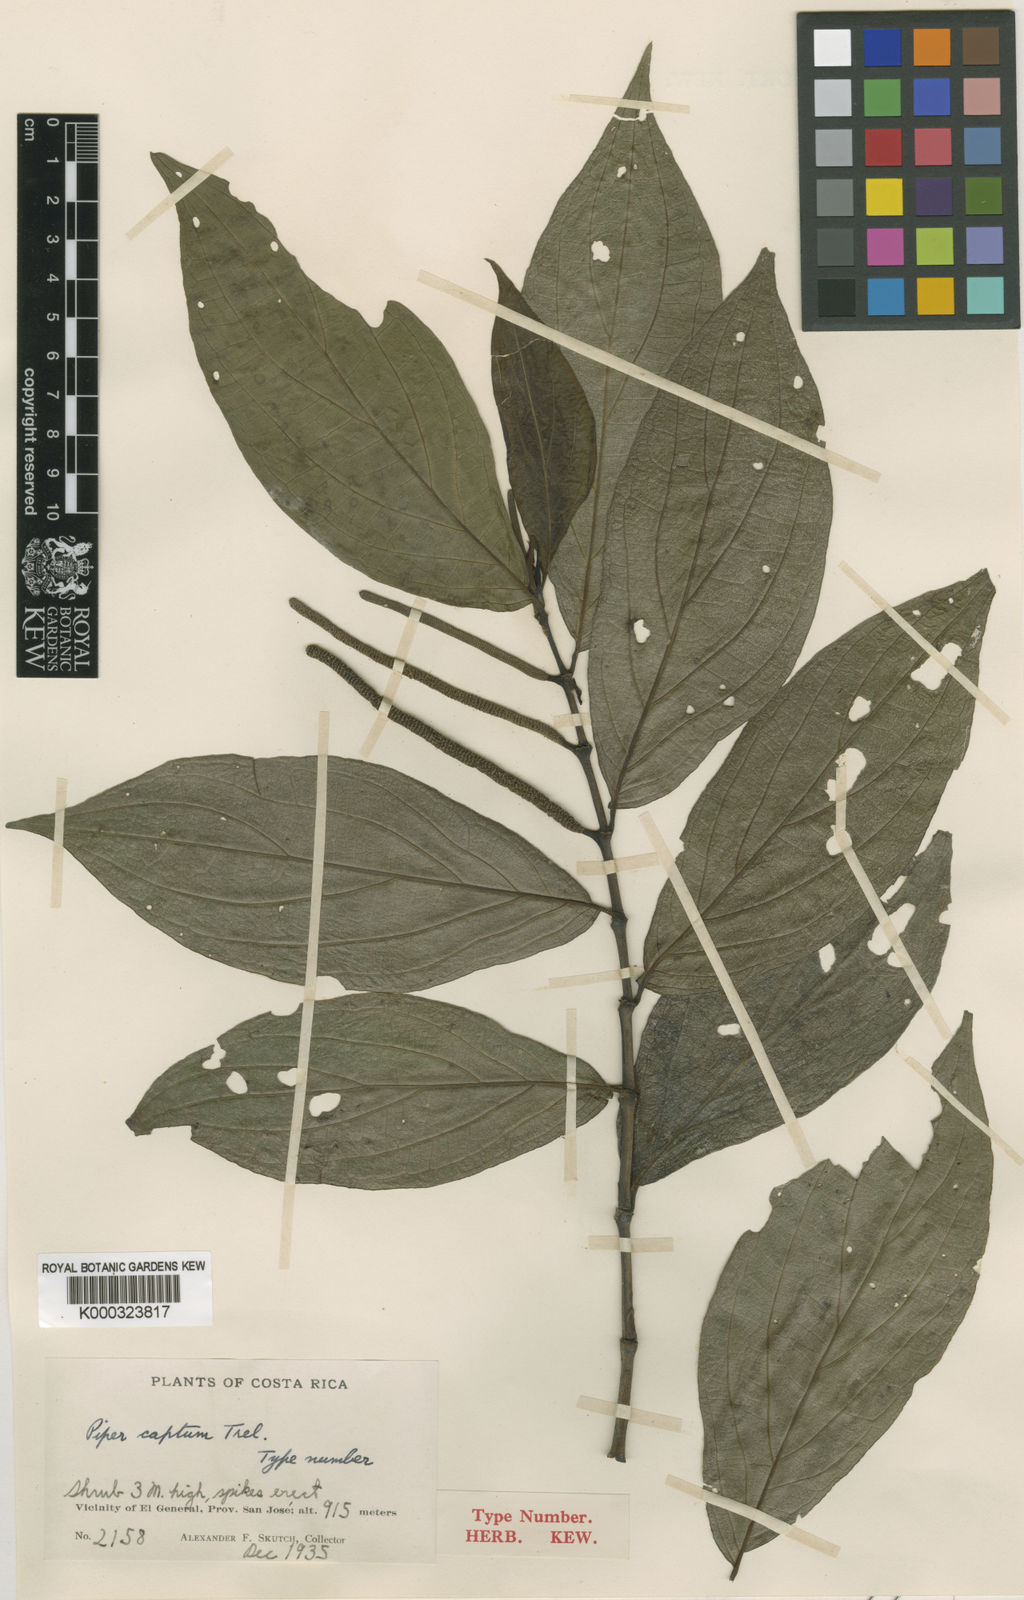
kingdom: Plantae
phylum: Tracheophyta
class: Magnoliopsida
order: Piperales
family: Piperaceae
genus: Piper
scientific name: Piper captum
